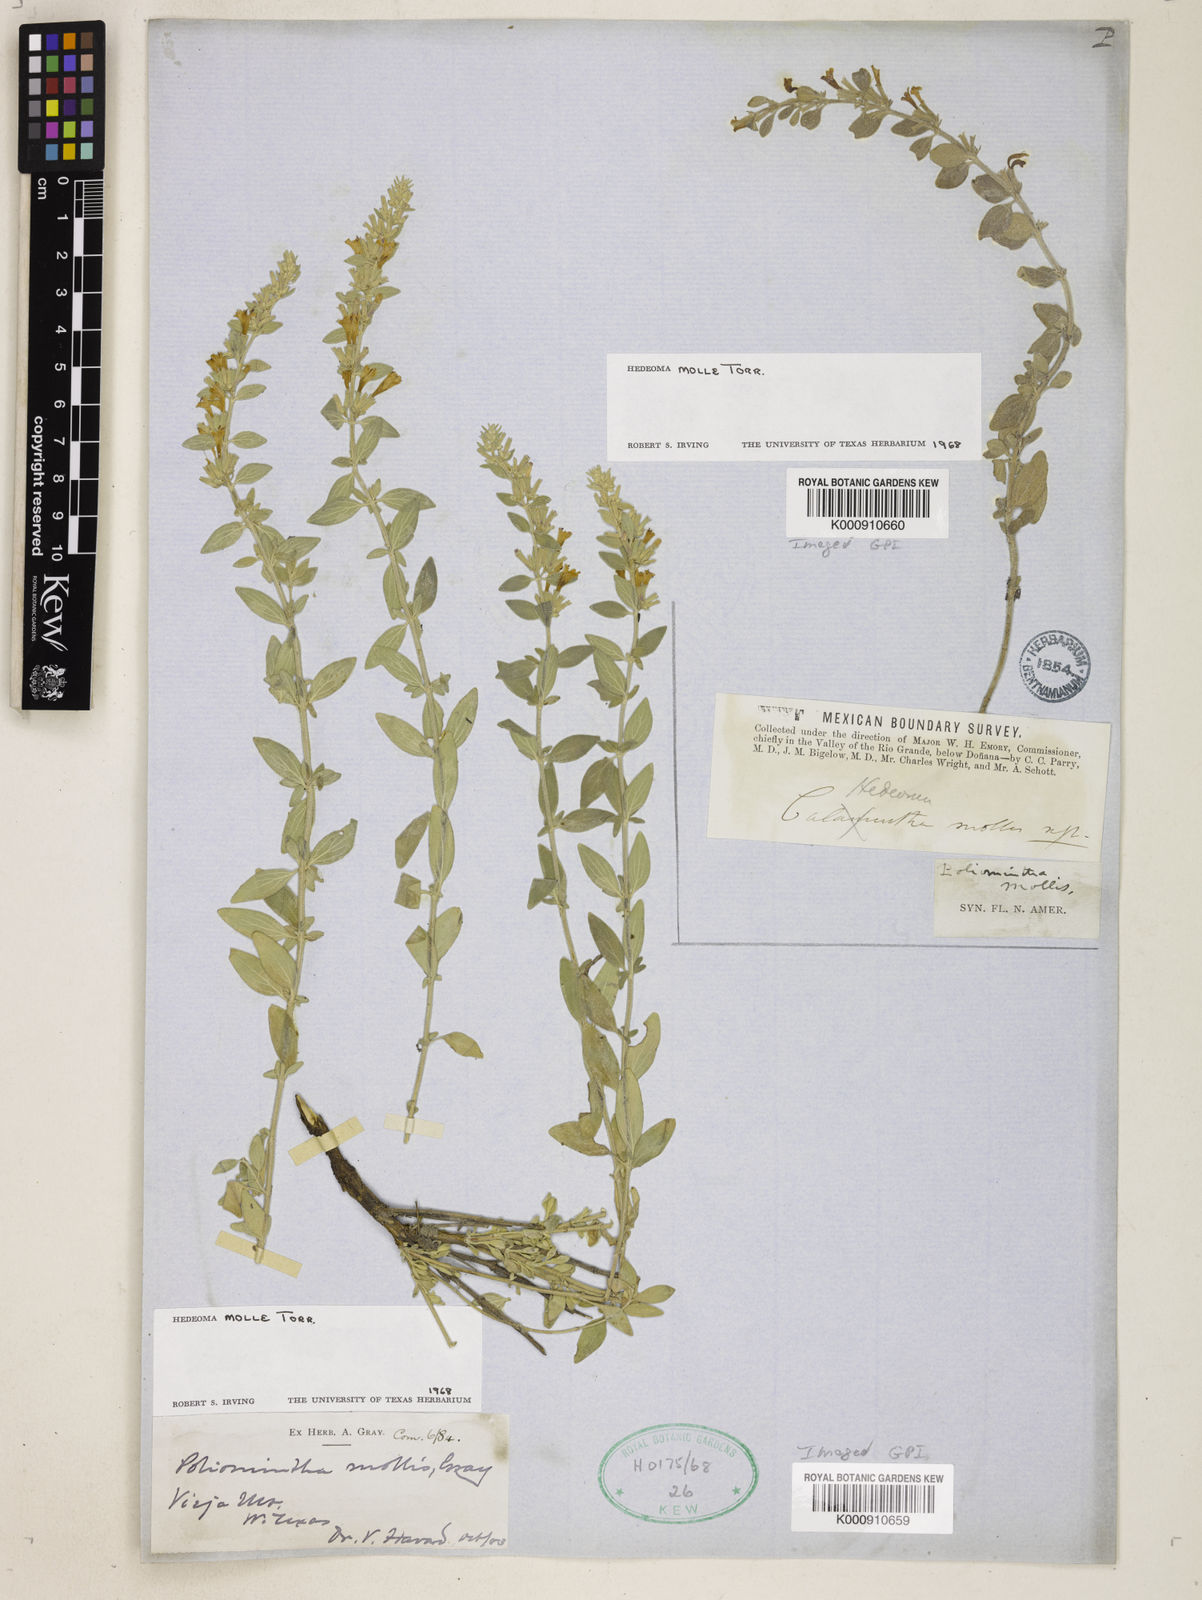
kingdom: Plantae
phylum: Tracheophyta
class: Magnoliopsida
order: Lamiales
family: Lamiaceae
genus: Hedeoma
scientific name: Hedeoma
